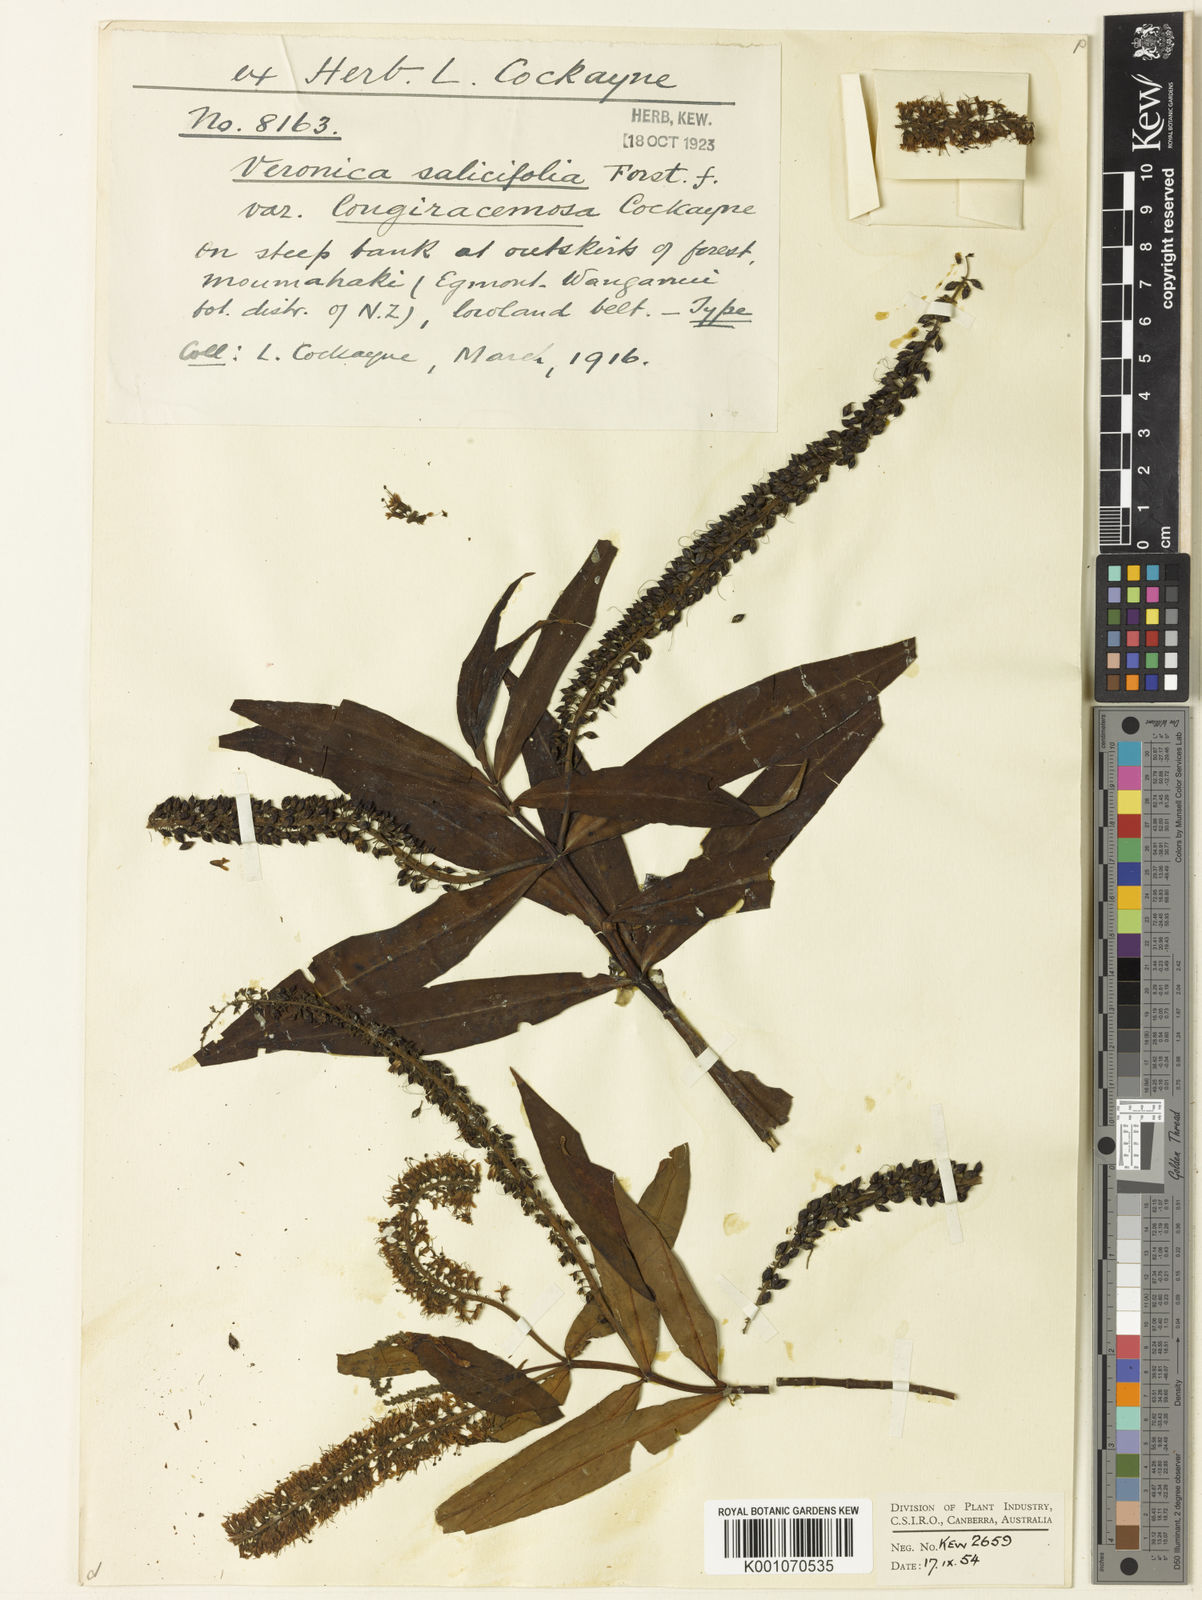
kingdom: Plantae
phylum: Tracheophyta
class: Magnoliopsida
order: Lamiales
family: Plantaginaceae
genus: Veronica
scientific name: Veronica
